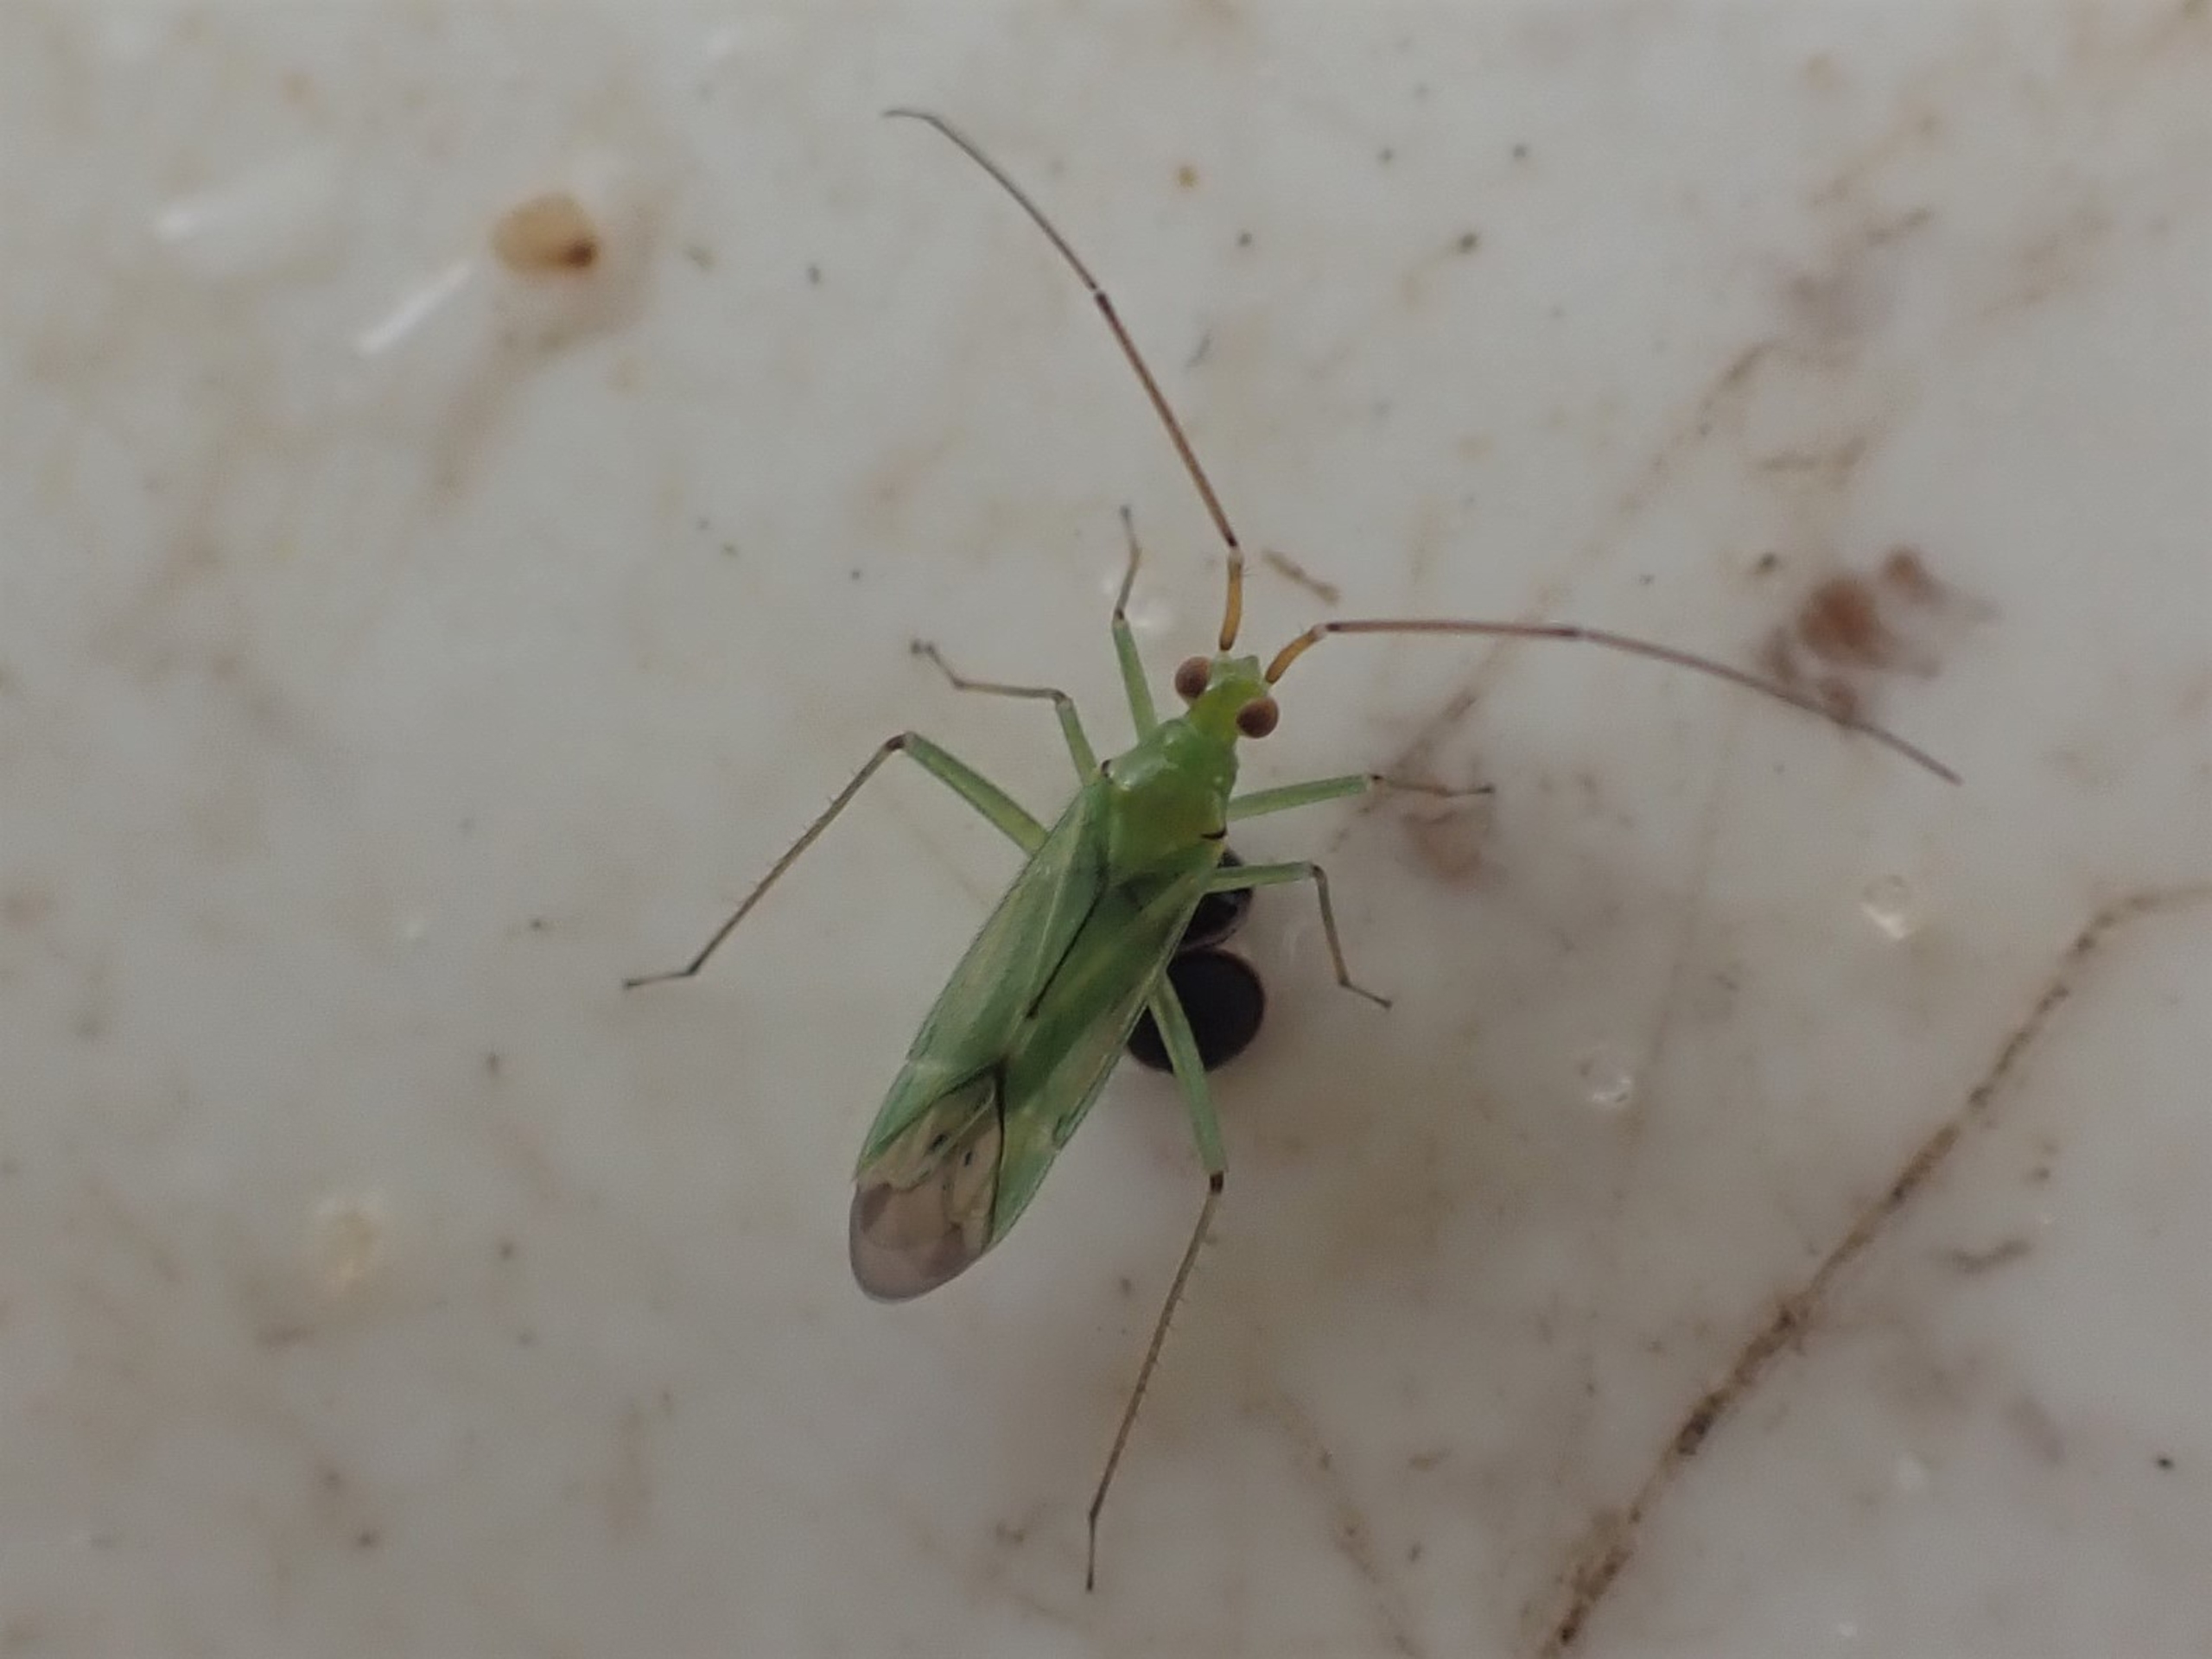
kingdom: Animalia
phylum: Arthropoda
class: Insecta
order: Hemiptera
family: Miridae
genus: Blepharidopterus
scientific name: Blepharidopterus angulatus
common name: Sortknæet blomstertæge
